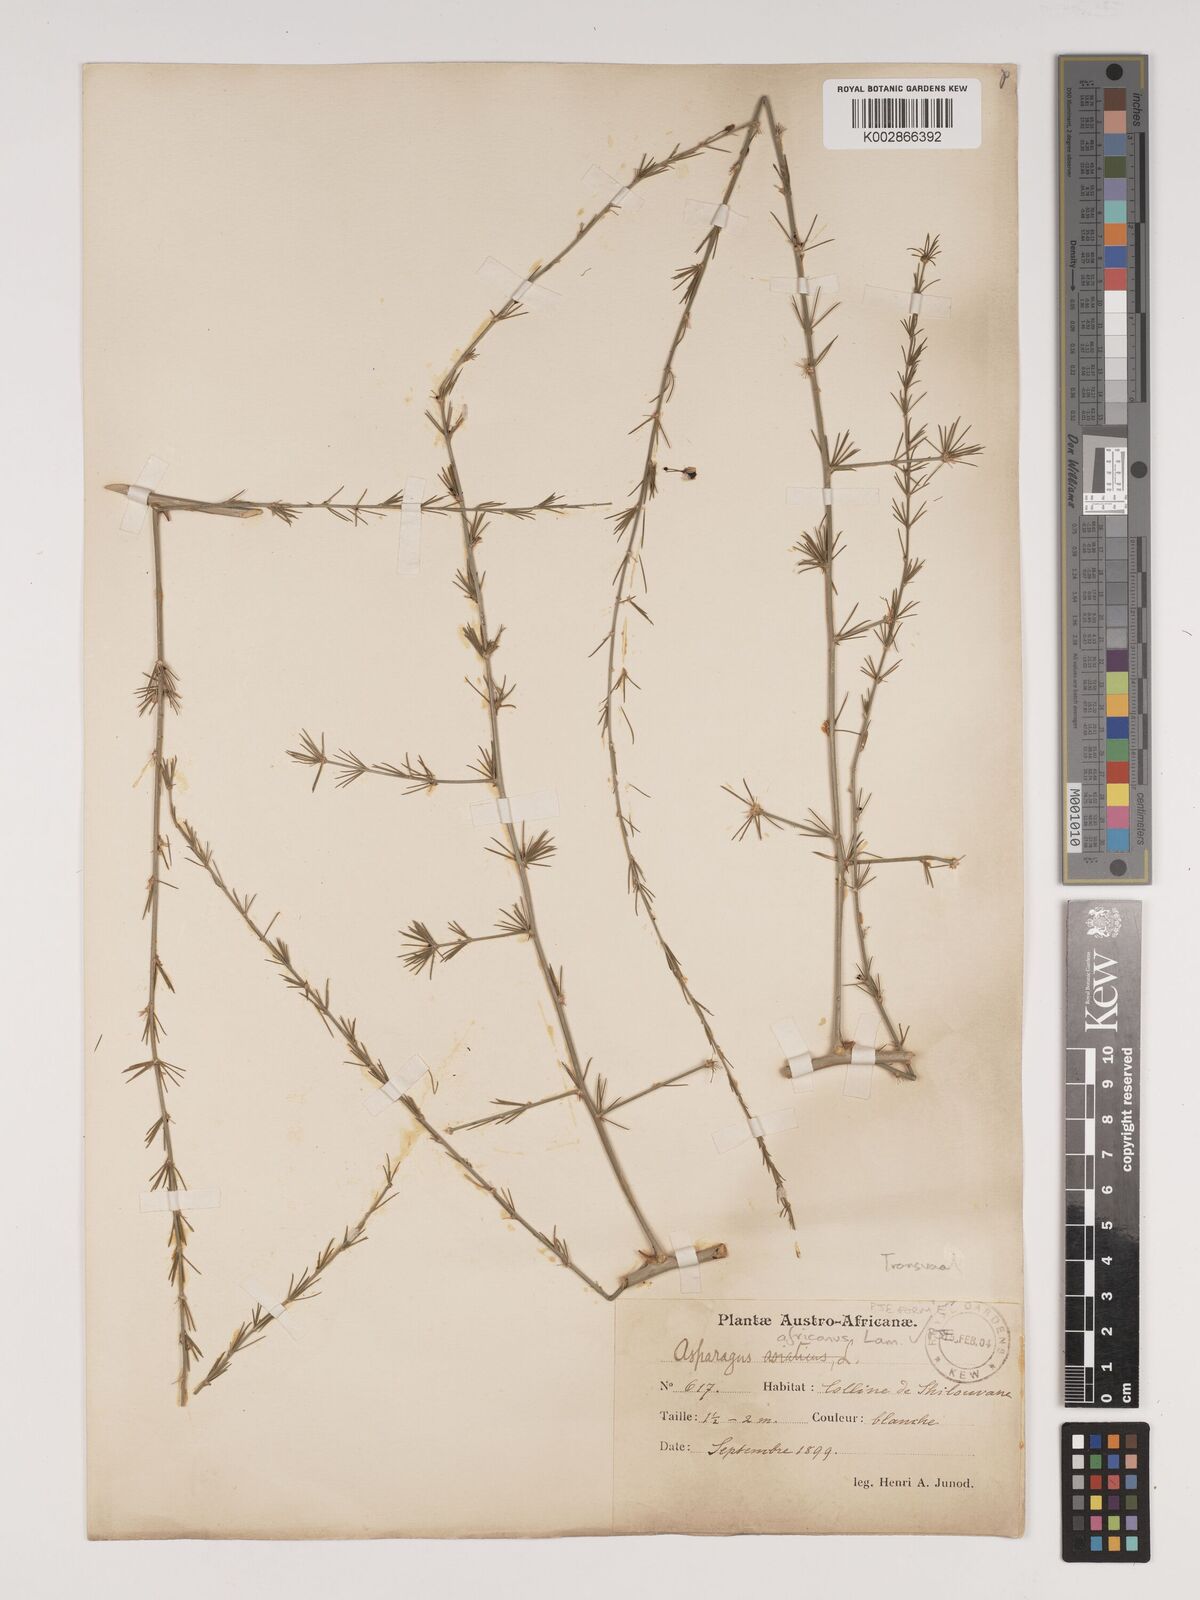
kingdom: Plantae
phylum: Tracheophyta
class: Liliopsida
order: Asparagales
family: Asparagaceae
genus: Asparagus
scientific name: Asparagus africanus
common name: Asparagus-fern
